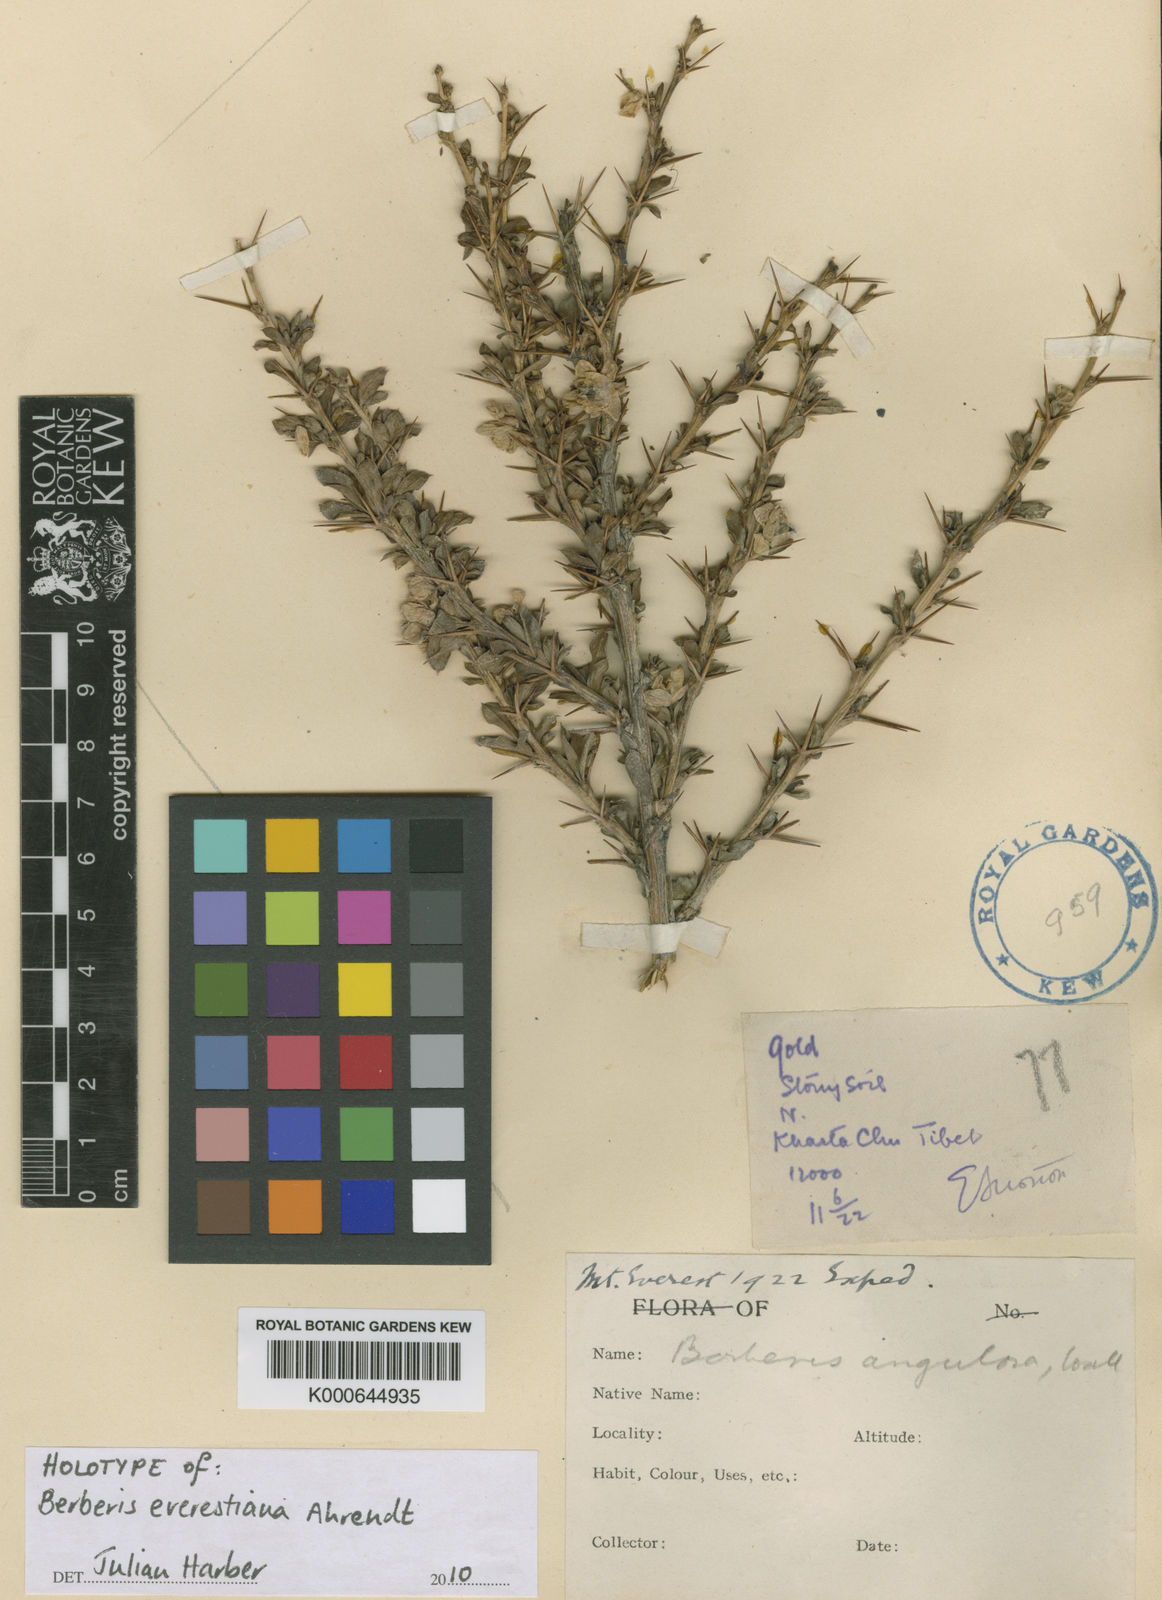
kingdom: Plantae
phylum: Tracheophyta
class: Magnoliopsida
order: Ranunculales
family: Berberidaceae
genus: Berberis
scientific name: Berberis angulosa
